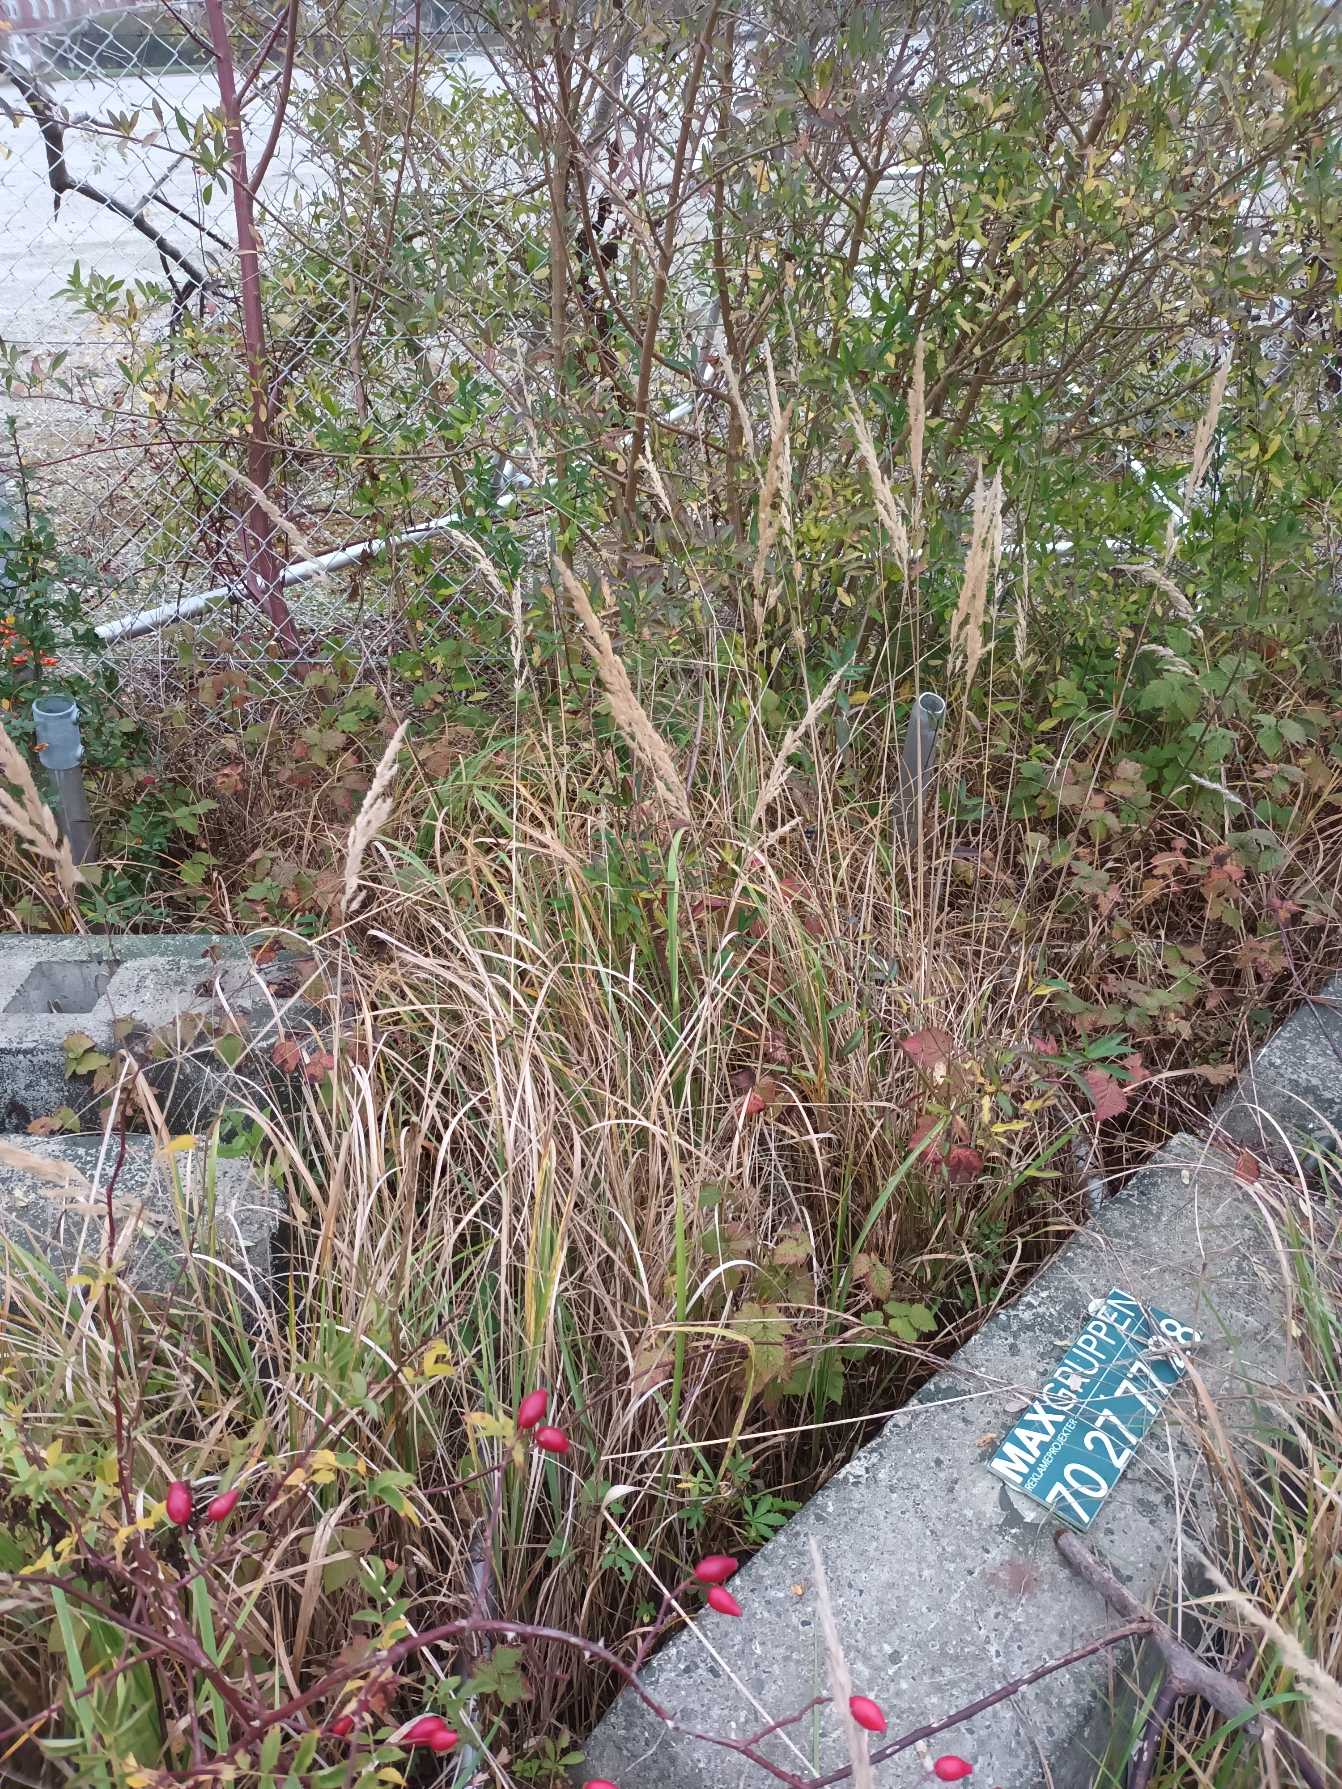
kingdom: Plantae
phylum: Tracheophyta
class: Liliopsida
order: Poales
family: Poaceae
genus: Calamagrostis
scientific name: Calamagrostis epigejos
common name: Bjerg-rørhvene
